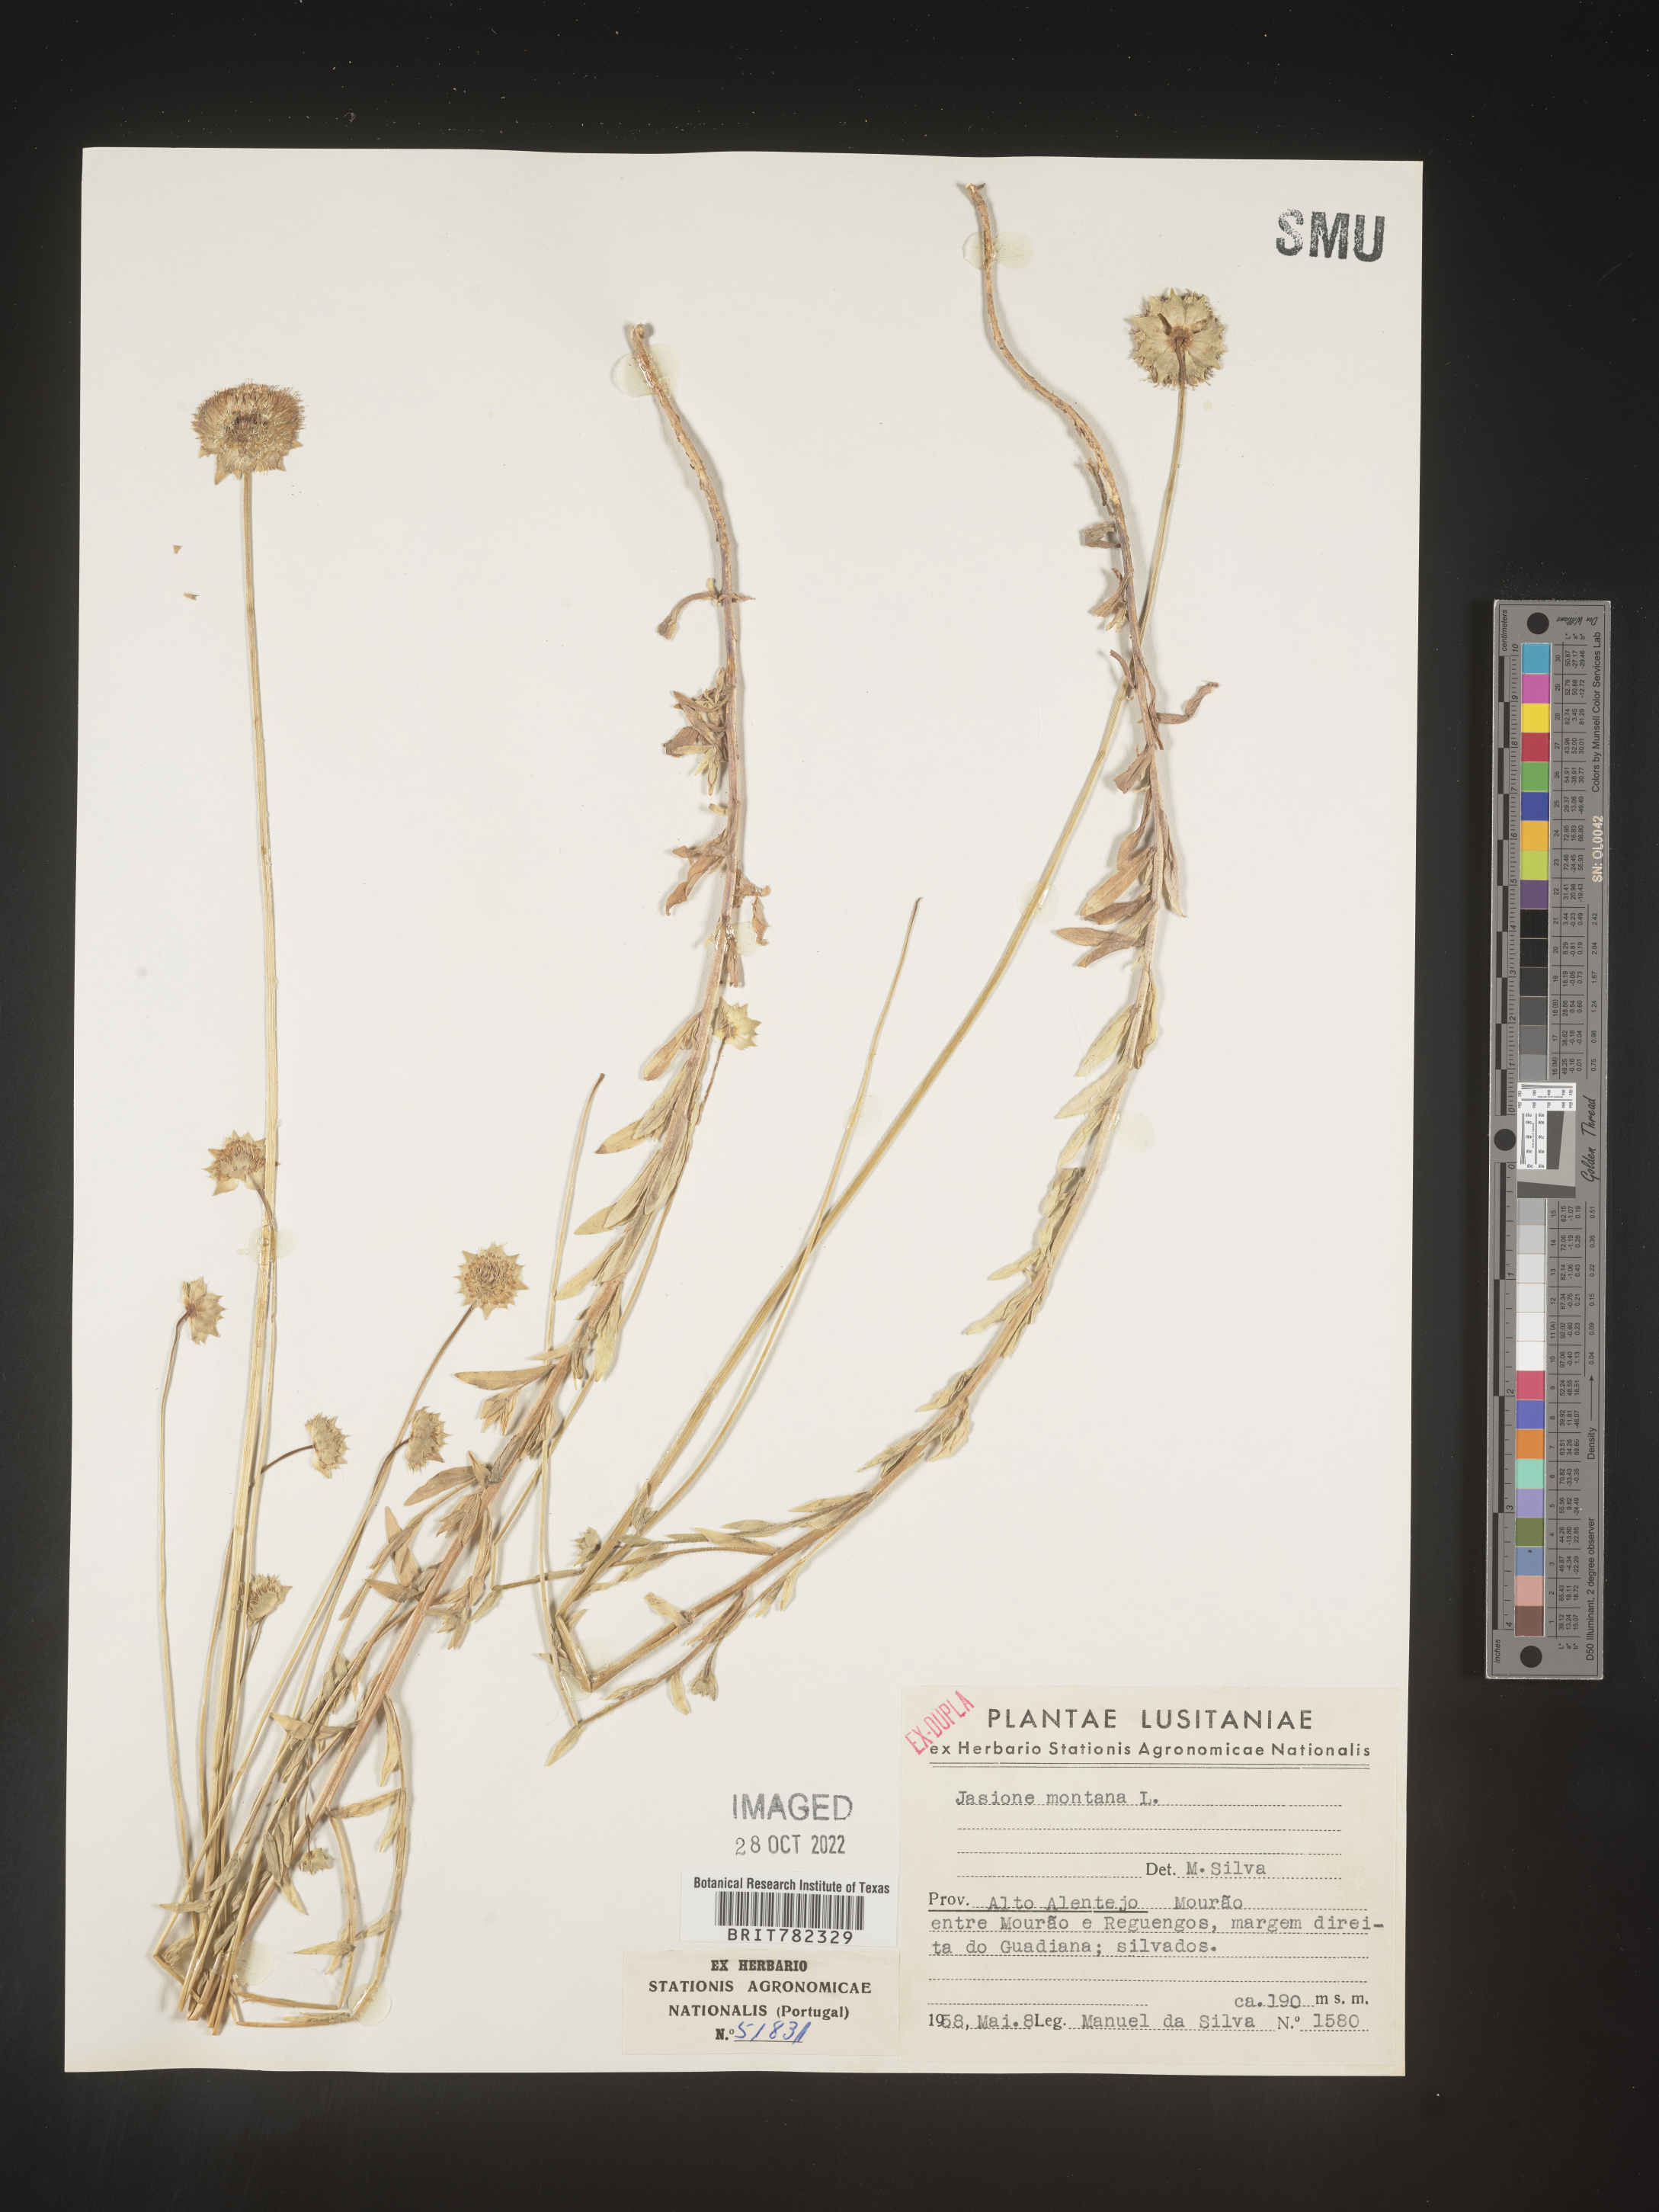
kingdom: Plantae
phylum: Tracheophyta
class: Magnoliopsida
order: Asterales
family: Campanulaceae
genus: Jasione
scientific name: Jasione
